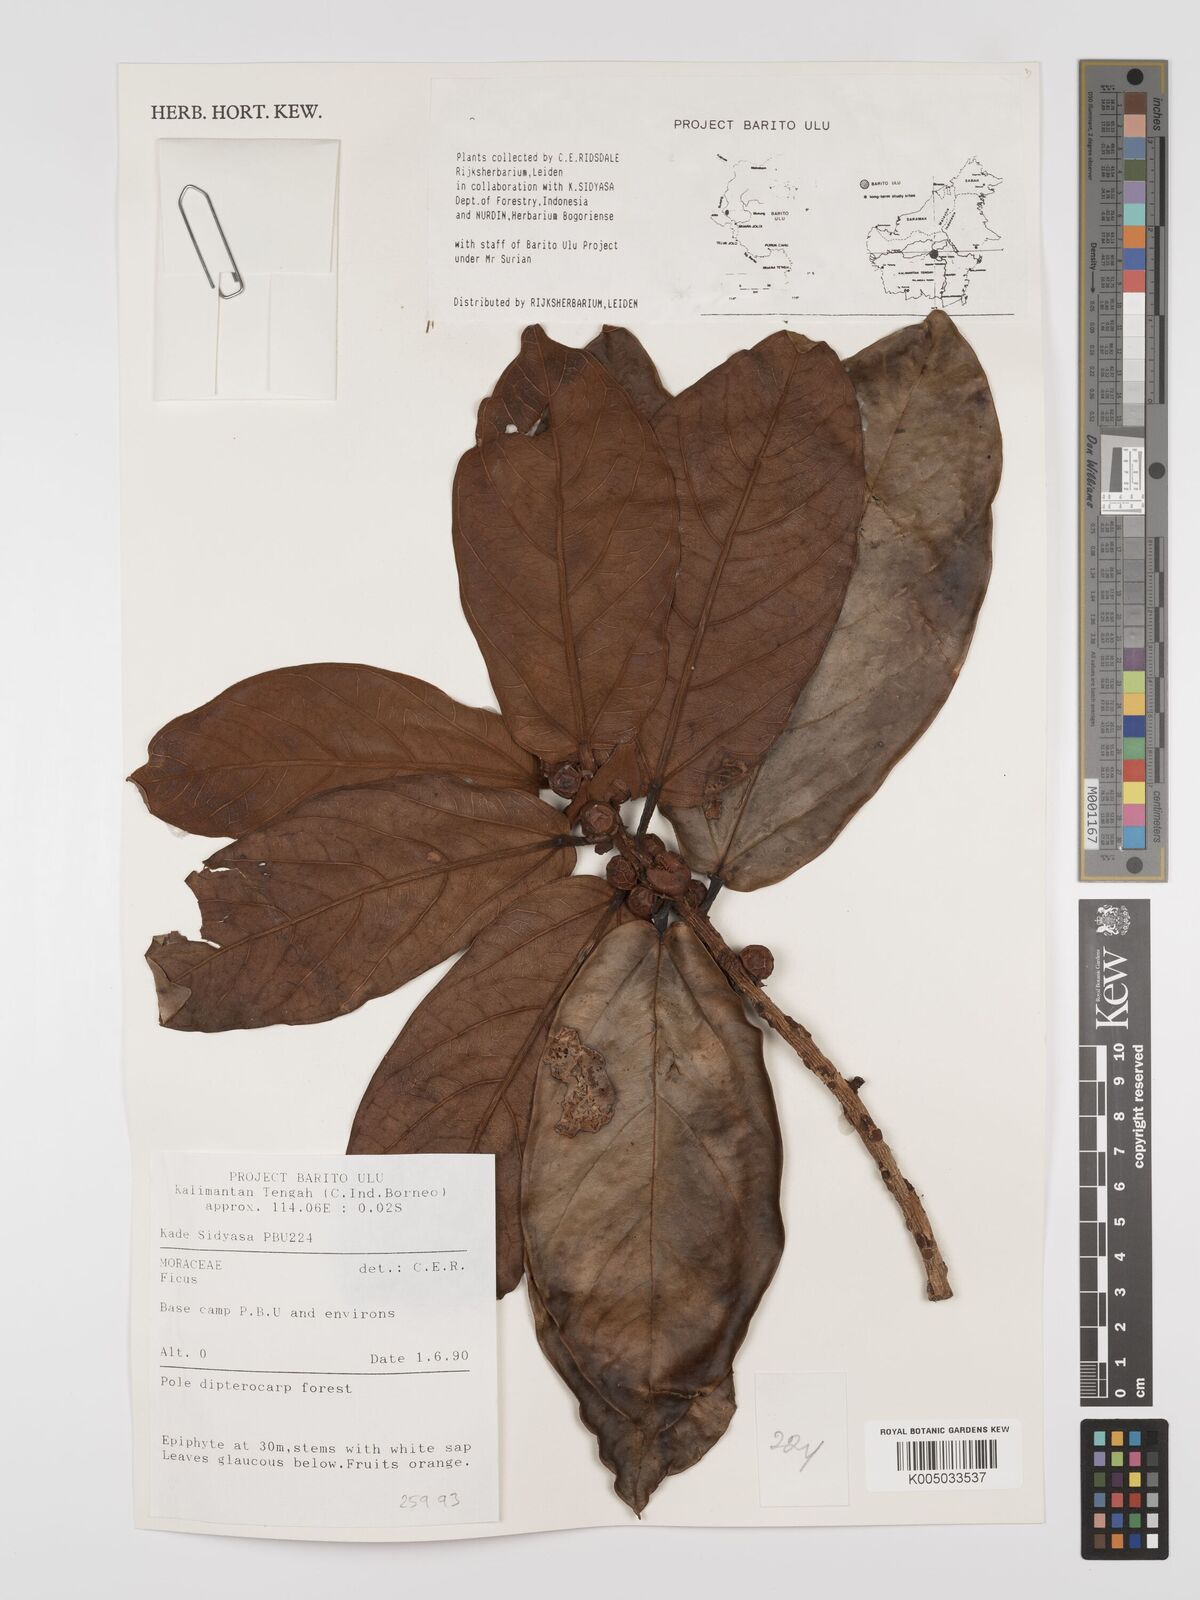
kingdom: Plantae
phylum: Tracheophyta
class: Magnoliopsida
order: Rosales
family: Moraceae
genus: Ficus
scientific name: Ficus
